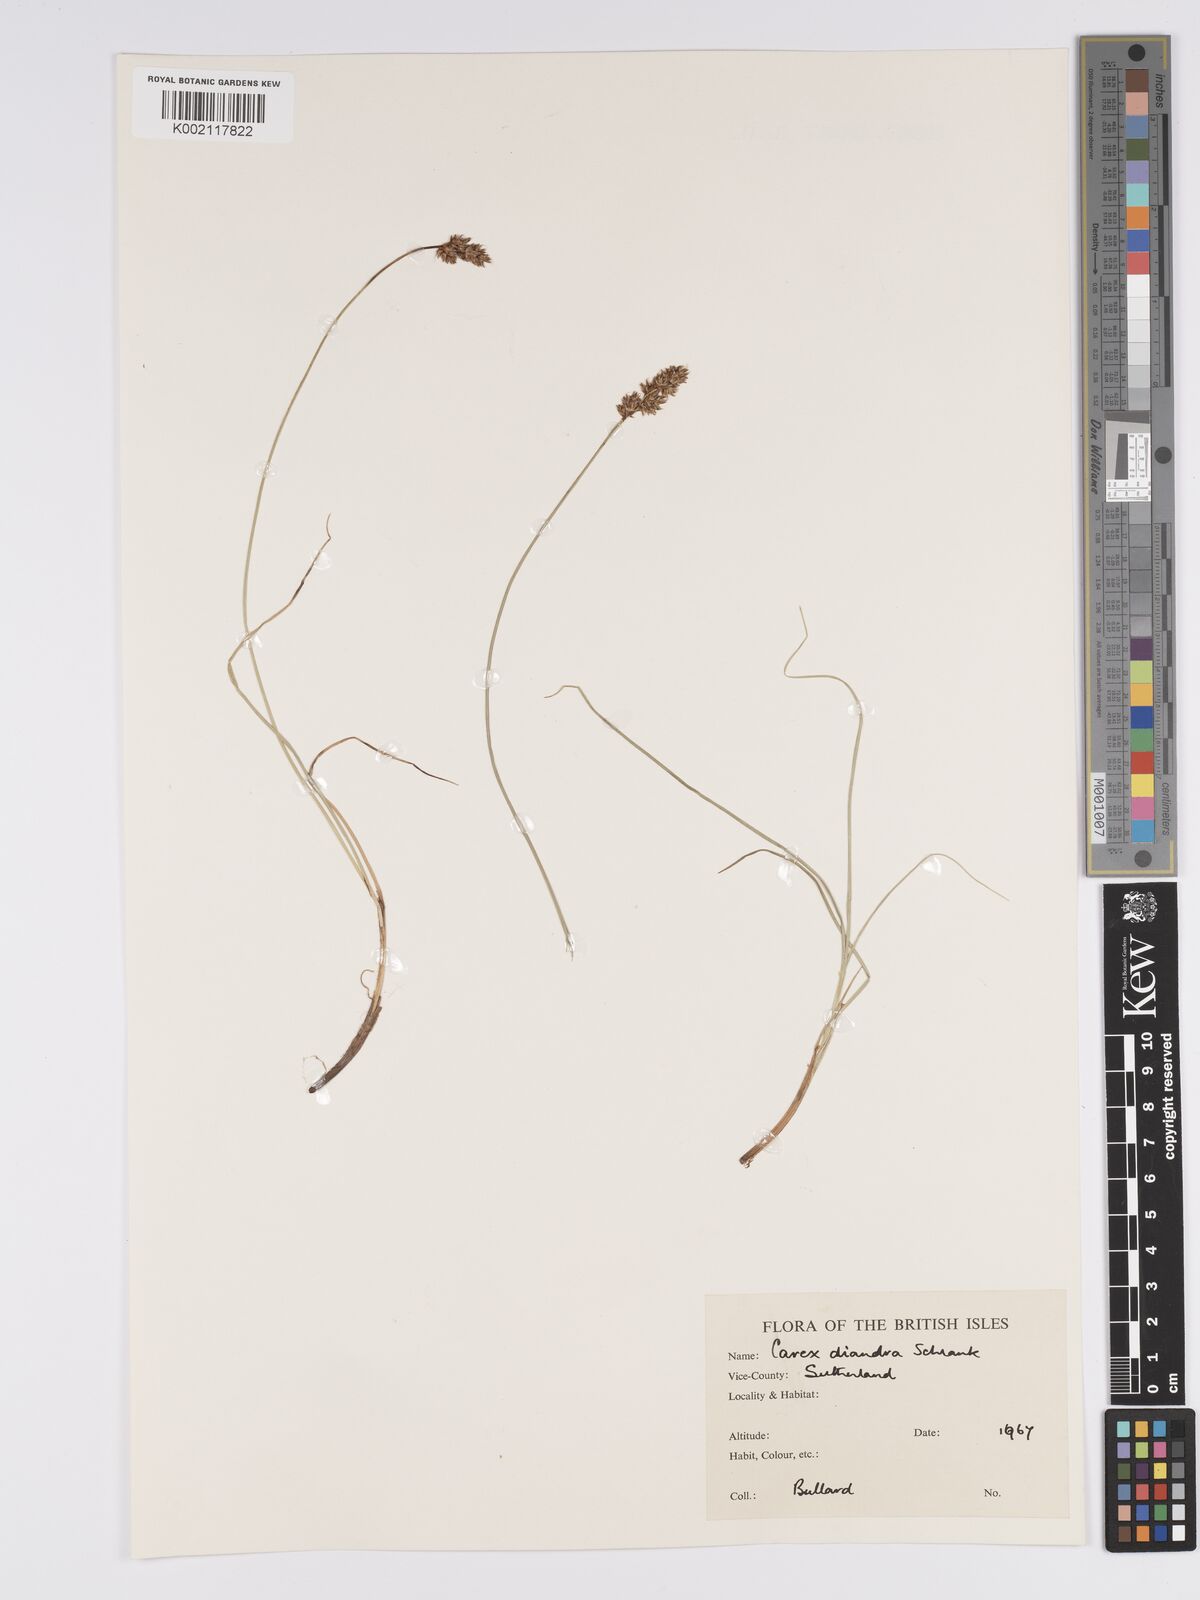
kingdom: Plantae
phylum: Tracheophyta
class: Liliopsida
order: Poales
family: Cyperaceae
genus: Carex
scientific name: Carex diandra
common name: Lesser tussock-sedge
